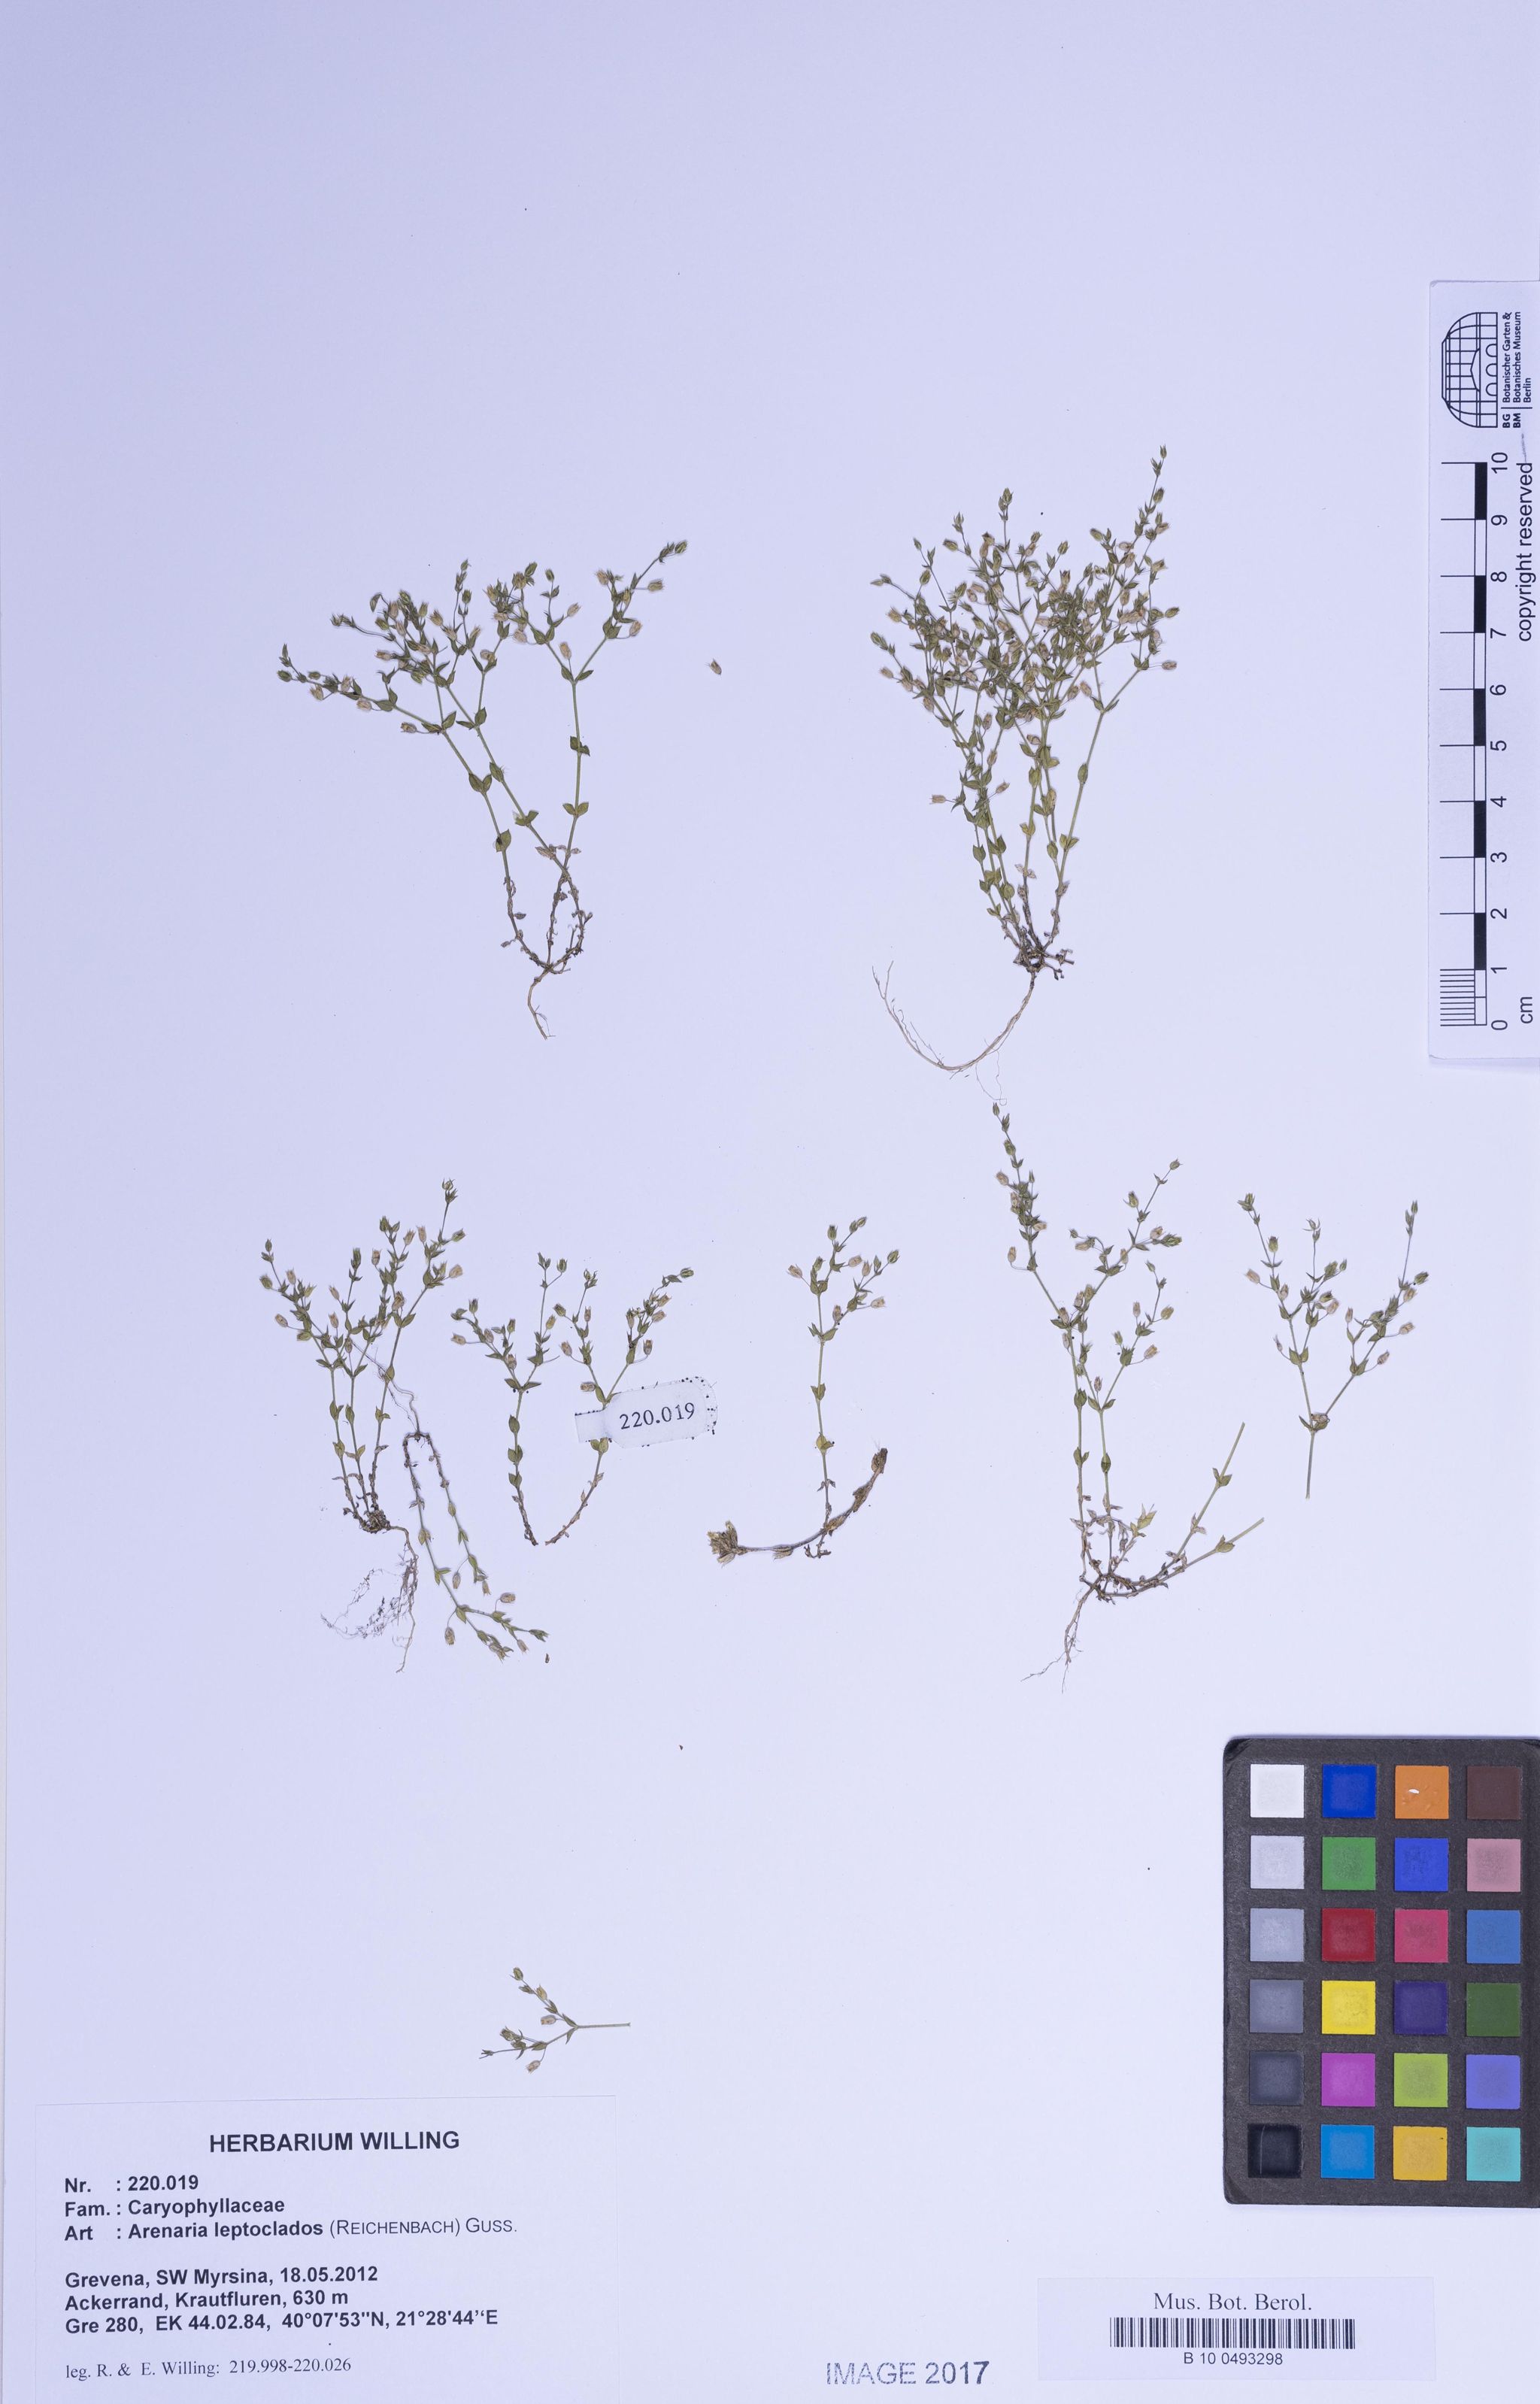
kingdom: Plantae
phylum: Tracheophyta
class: Magnoliopsida
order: Caryophyllales
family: Caryophyllaceae
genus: Arenaria
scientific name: Arenaria leptoclados
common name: Thyme-leaved sandwort
